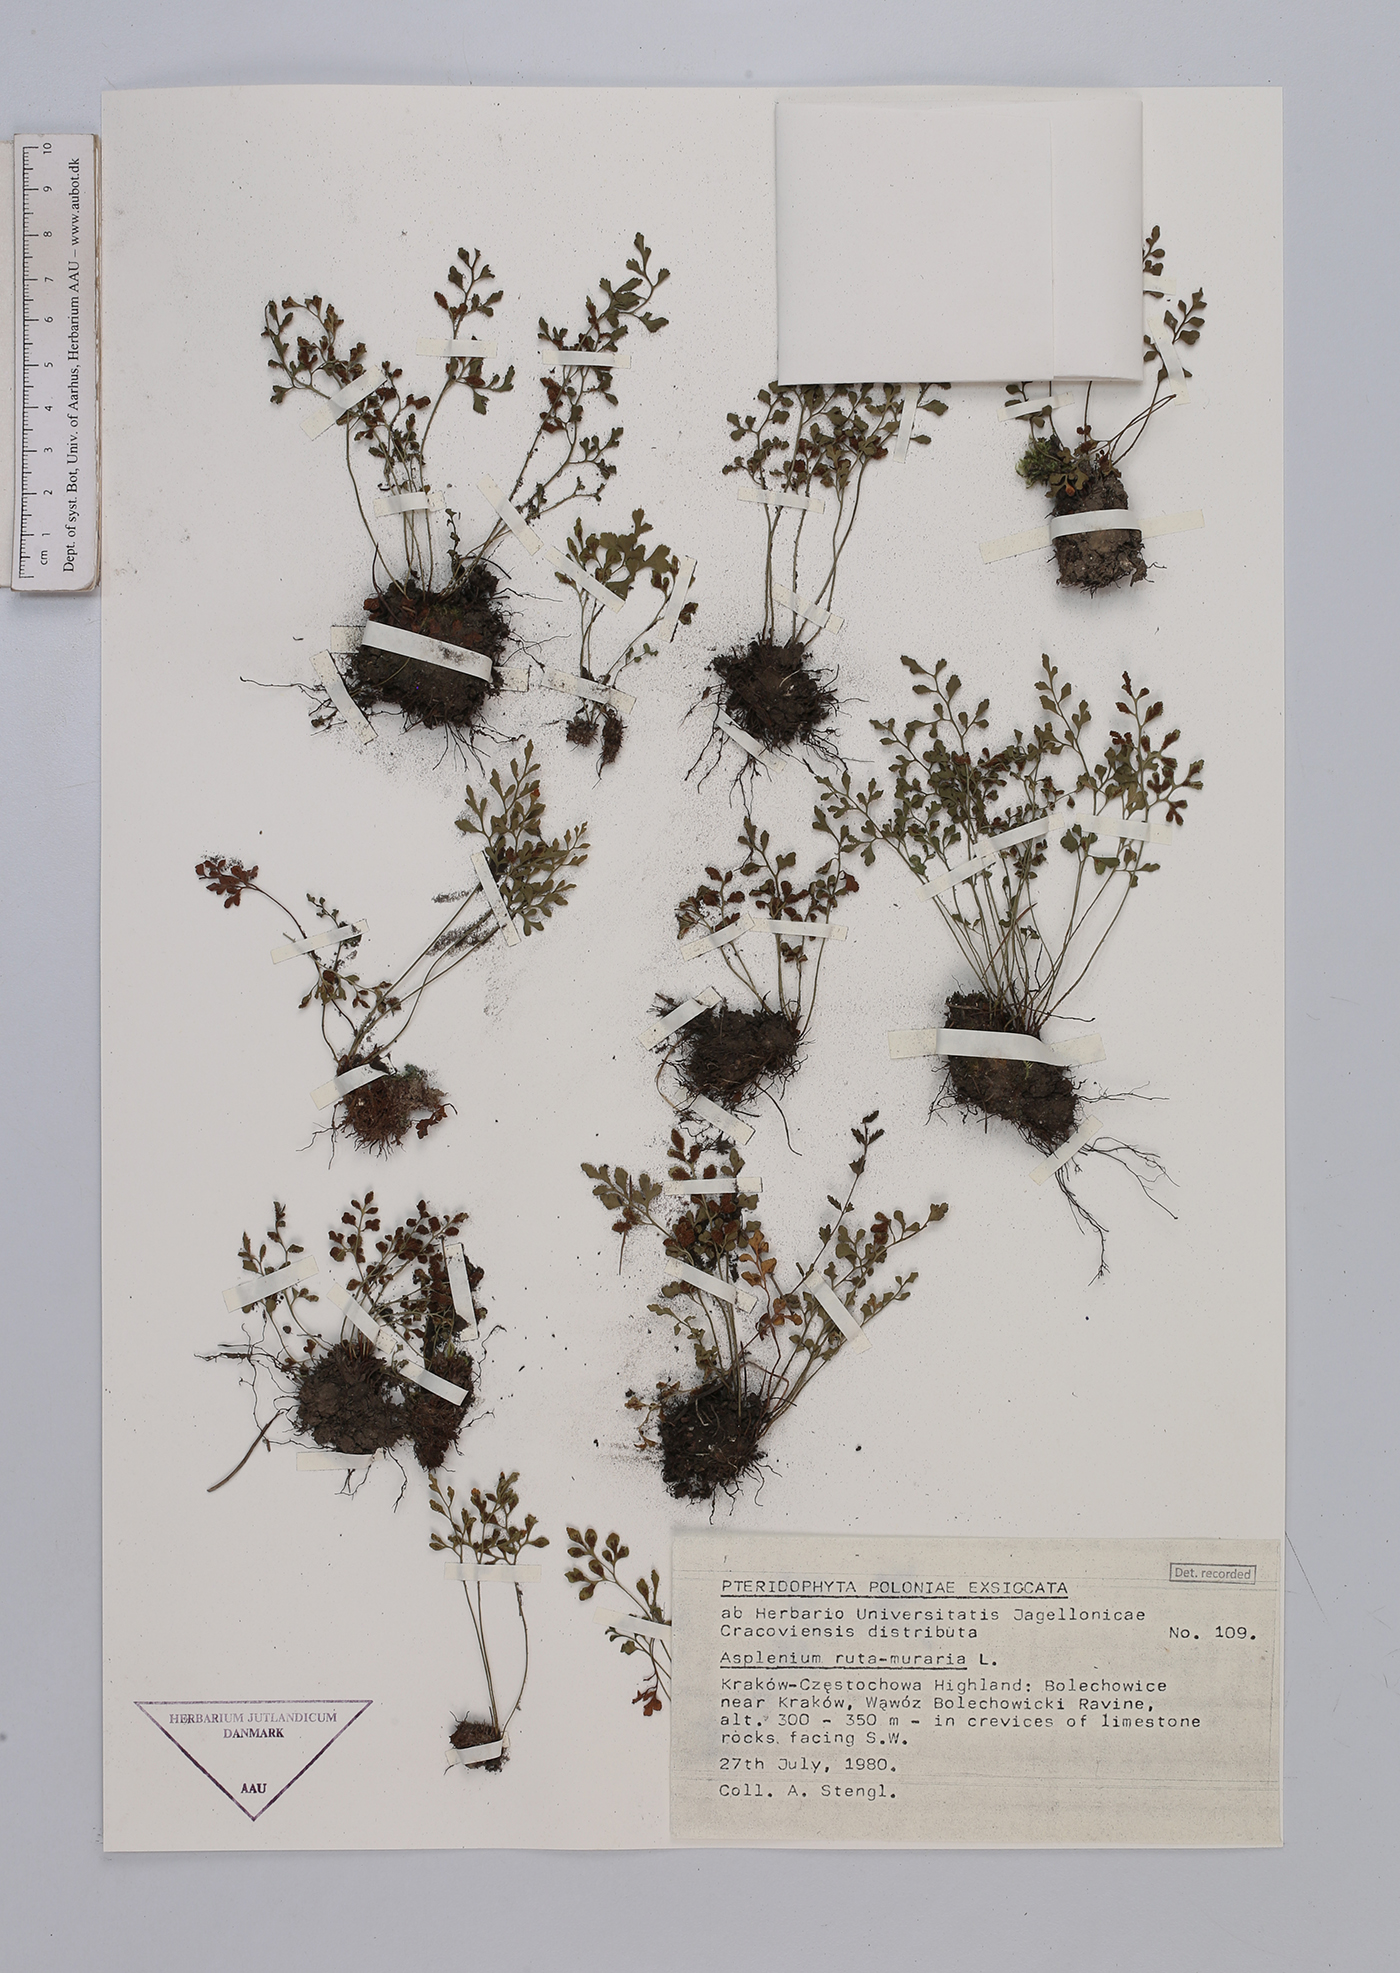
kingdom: Plantae
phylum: Tracheophyta
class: Polypodiopsida
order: Polypodiales
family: Aspleniaceae
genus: Asplenium
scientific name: Asplenium ruta-muraria
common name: Wall-rue
